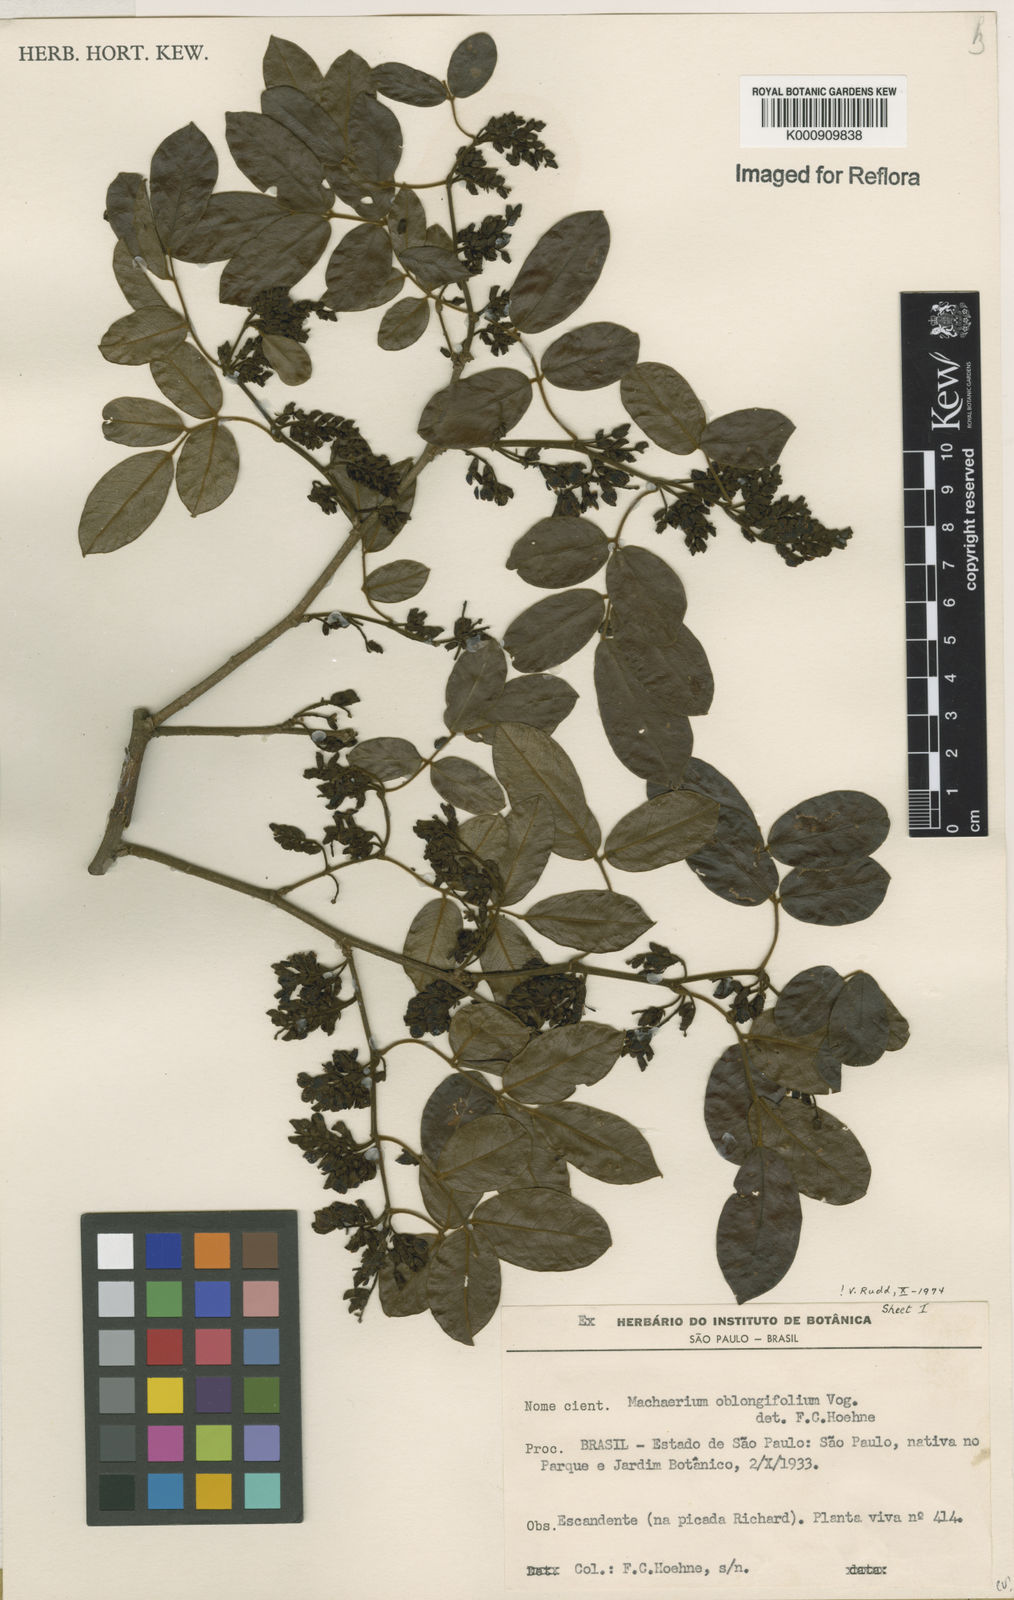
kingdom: Plantae
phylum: Tracheophyta
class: Magnoliopsida
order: Fabales
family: Fabaceae
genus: Machaerium
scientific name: Machaerium oblongifolium
